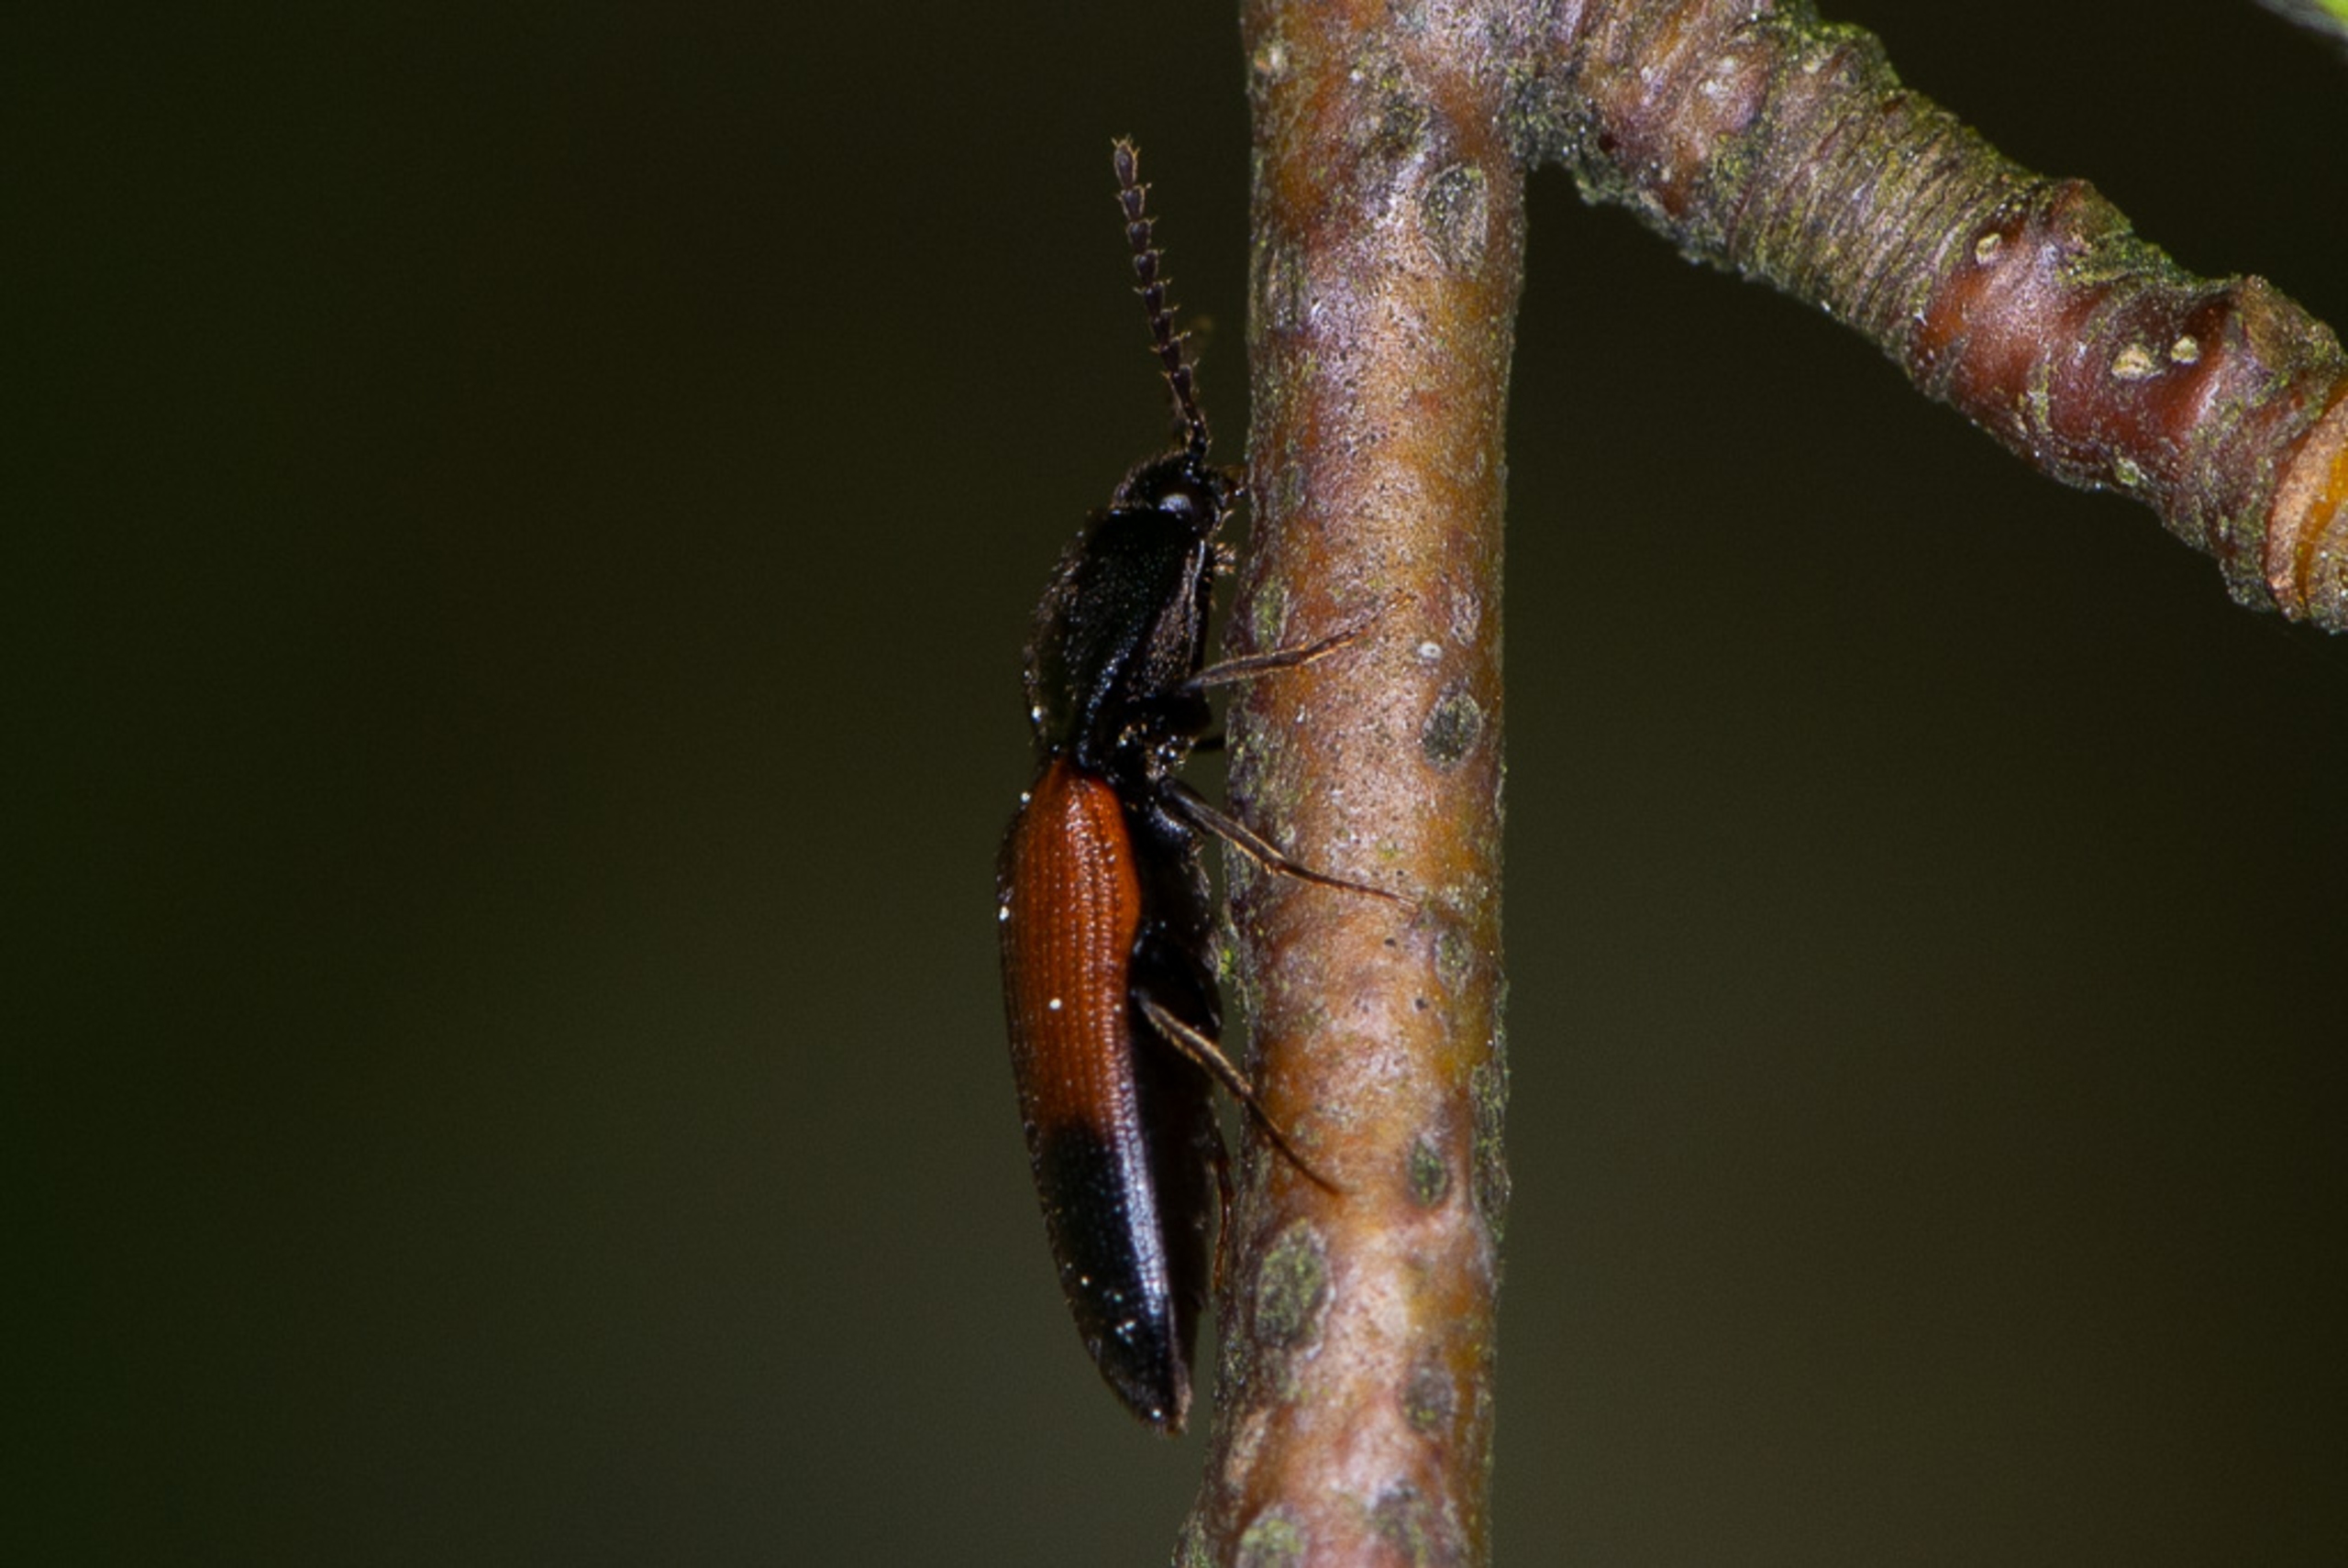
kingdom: Animalia
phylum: Arthropoda
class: Insecta
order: Coleoptera
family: Elateridae
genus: Ampedus
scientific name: Ampedus balteatus
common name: Tvefarvet skovsmælder
